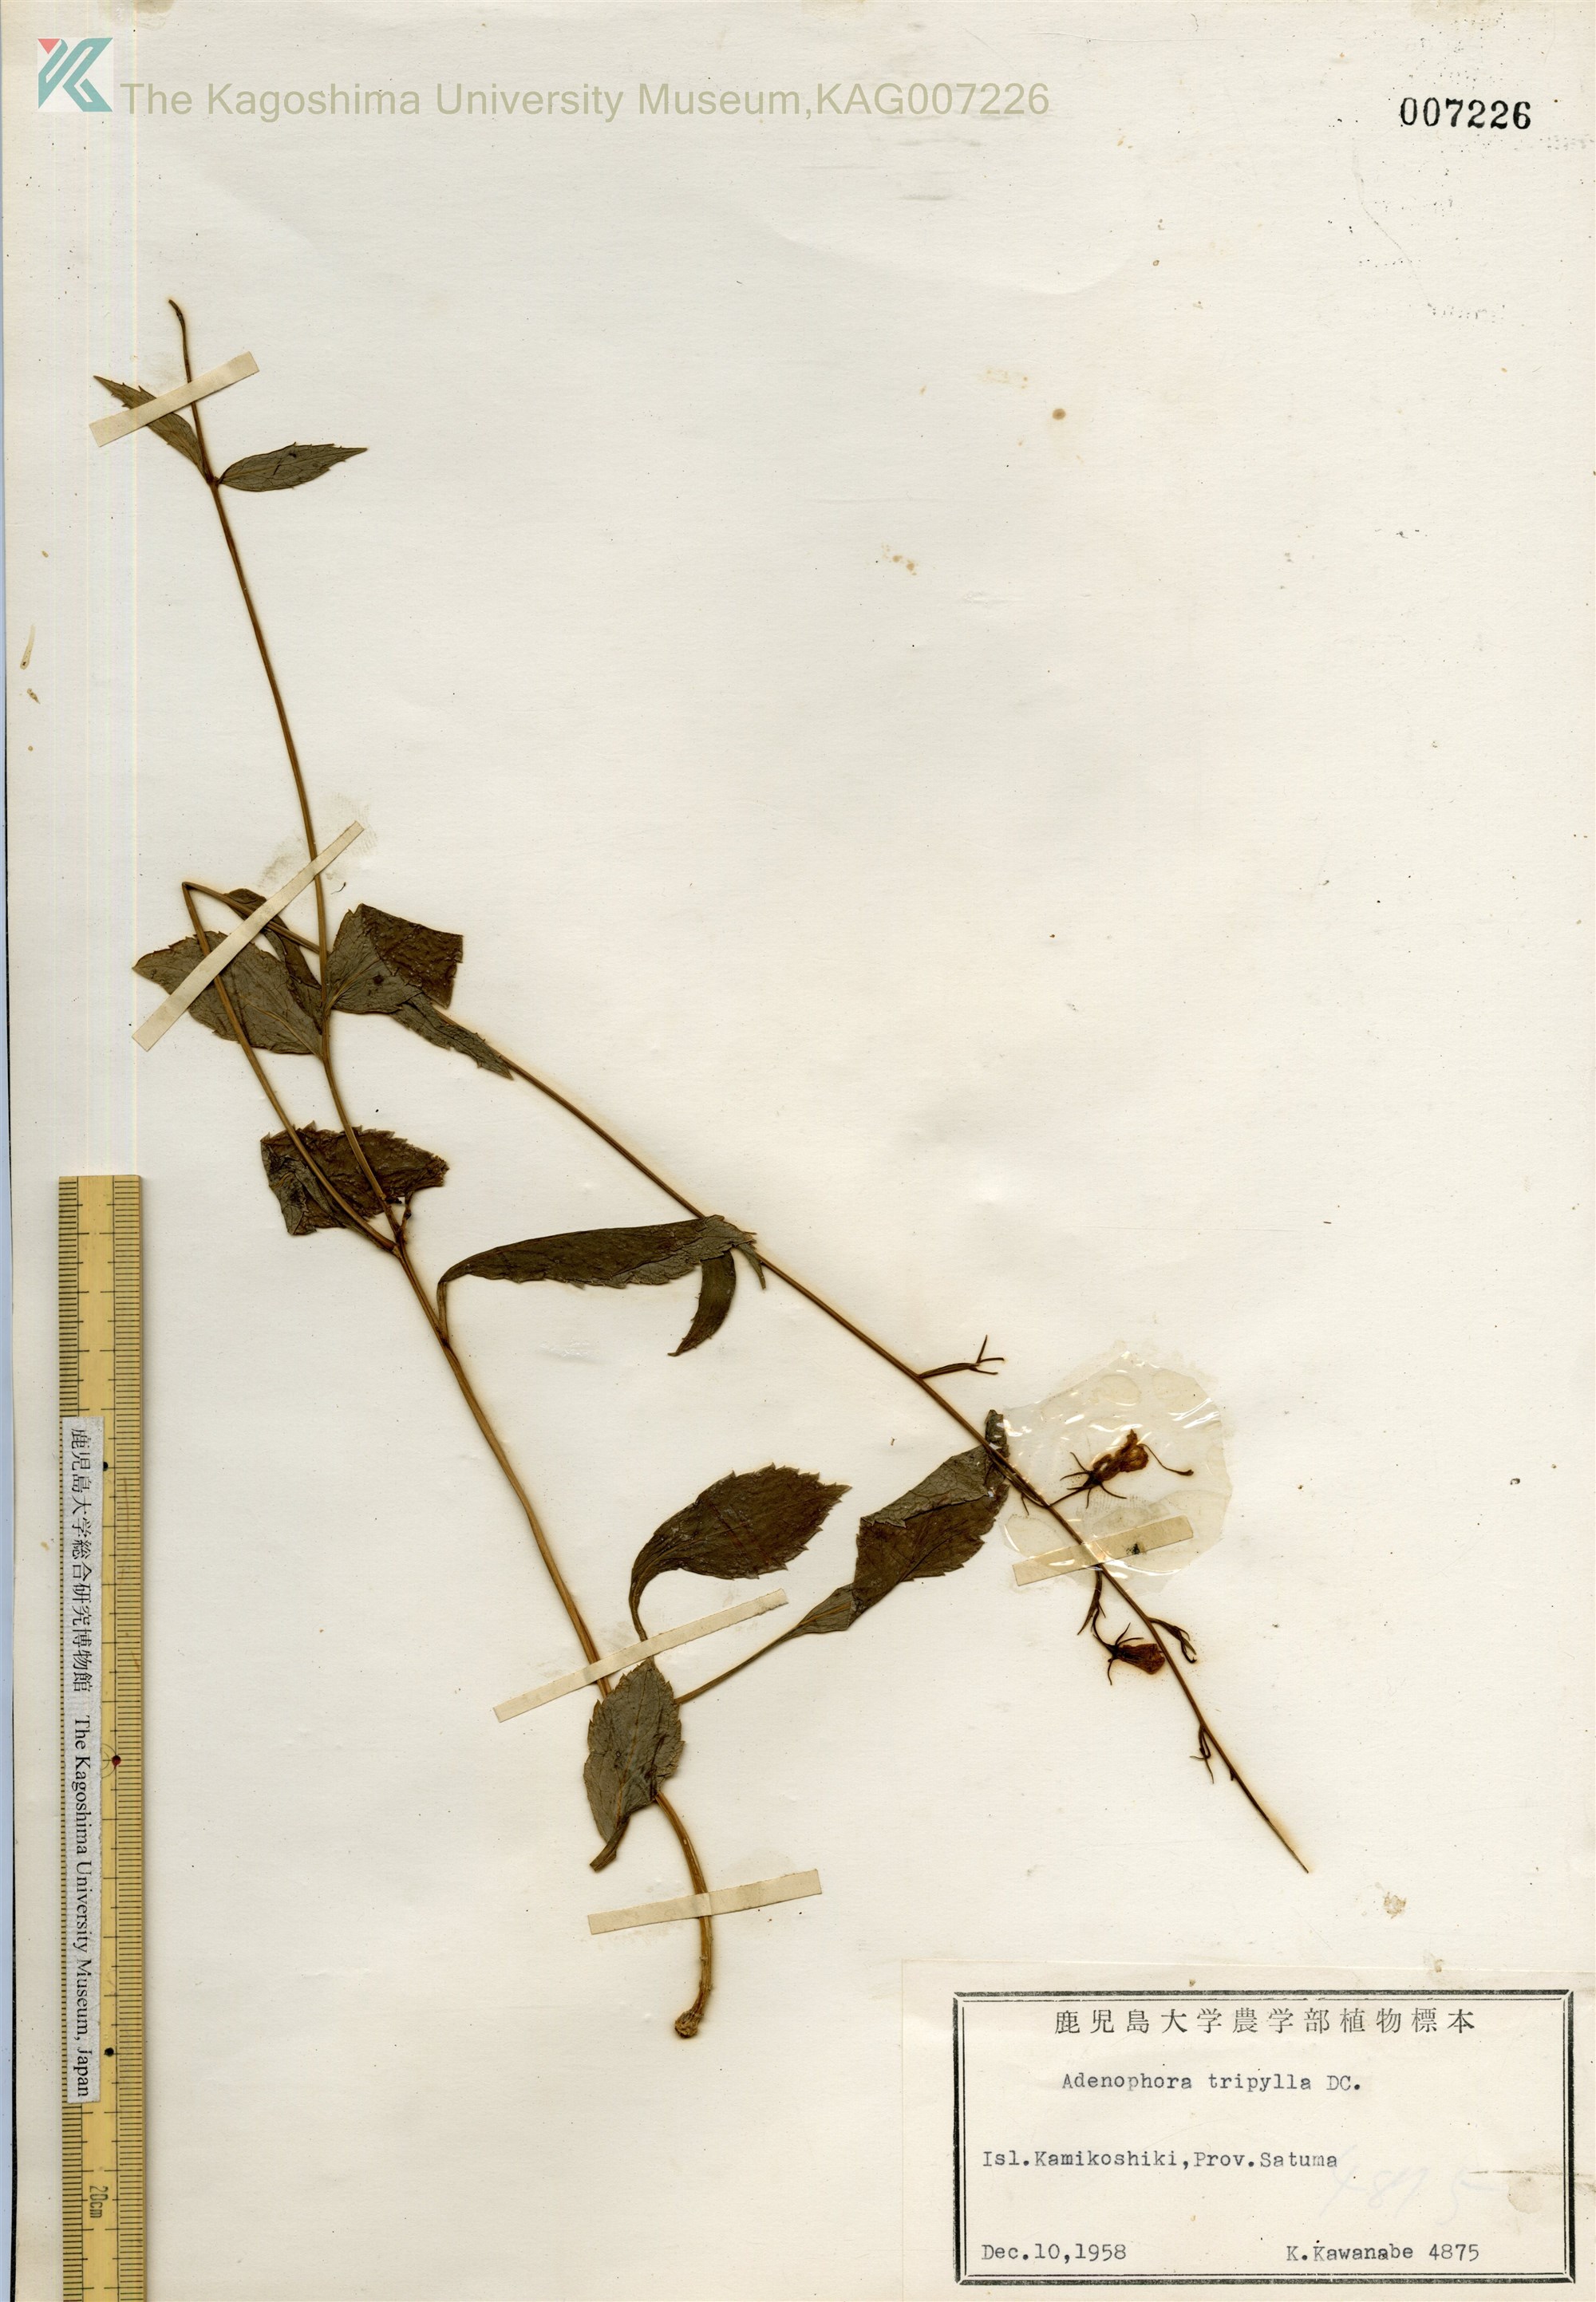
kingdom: Plantae
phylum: Tracheophyta
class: Magnoliopsida
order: Asterales
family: Campanulaceae
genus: Adenophora
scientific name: Adenophora triphylla
